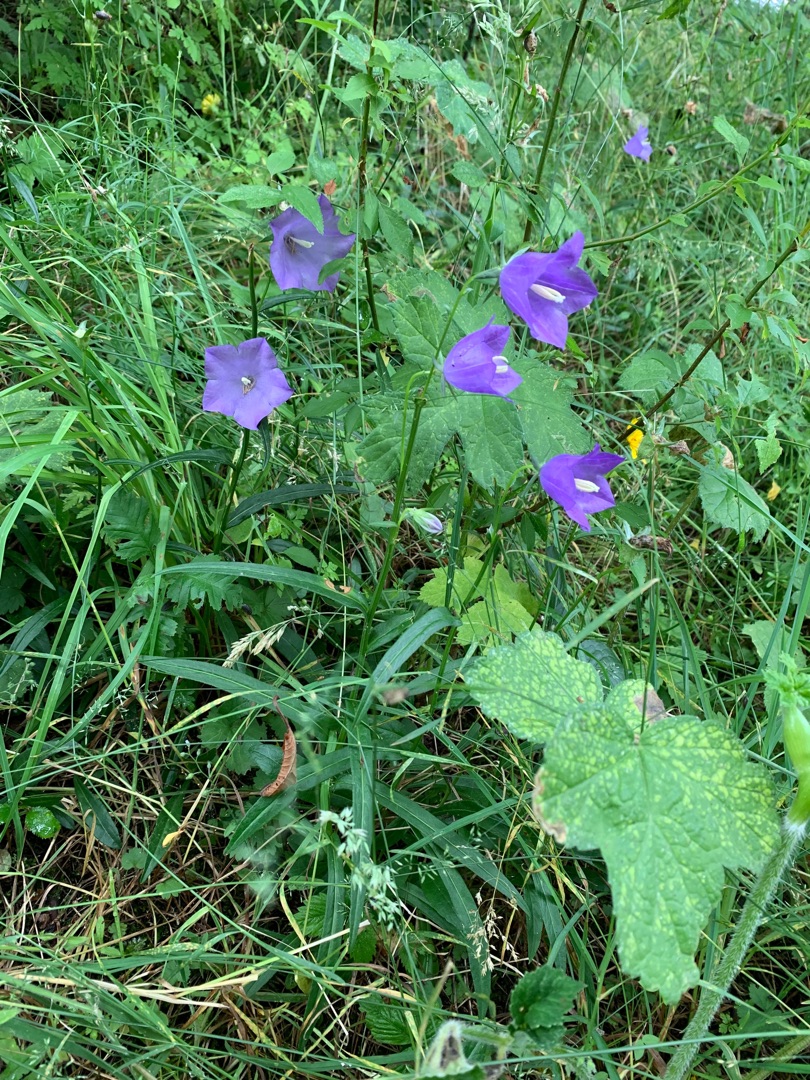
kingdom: Plantae
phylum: Tracheophyta
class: Magnoliopsida
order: Asterales
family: Campanulaceae
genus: Campanula
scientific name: Campanula persicifolia
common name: Smalbladet klokke
